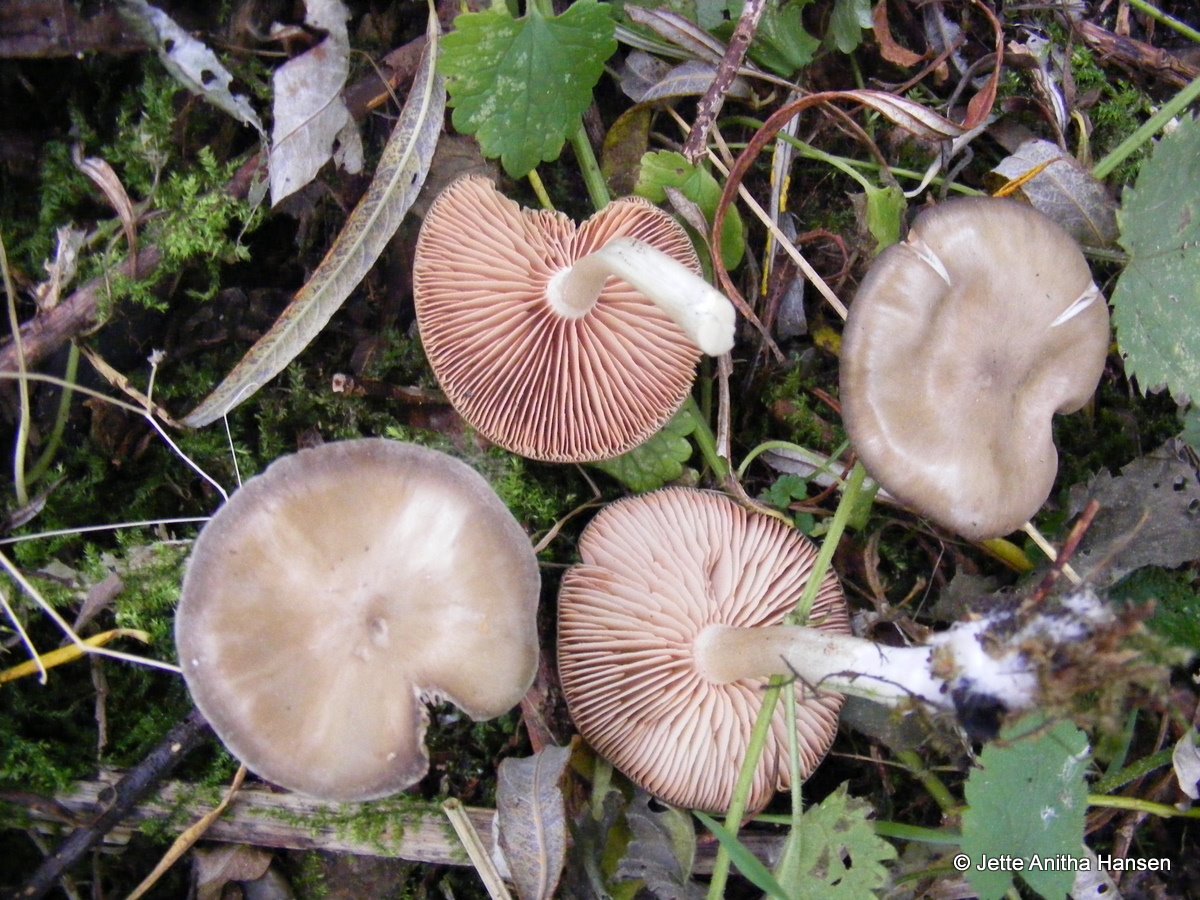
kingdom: Fungi
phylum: Basidiomycota
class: Agaricomycetes
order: Agaricales
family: Entolomataceae
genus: Entoloma
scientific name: Entoloma sericatum
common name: rank rødblad
